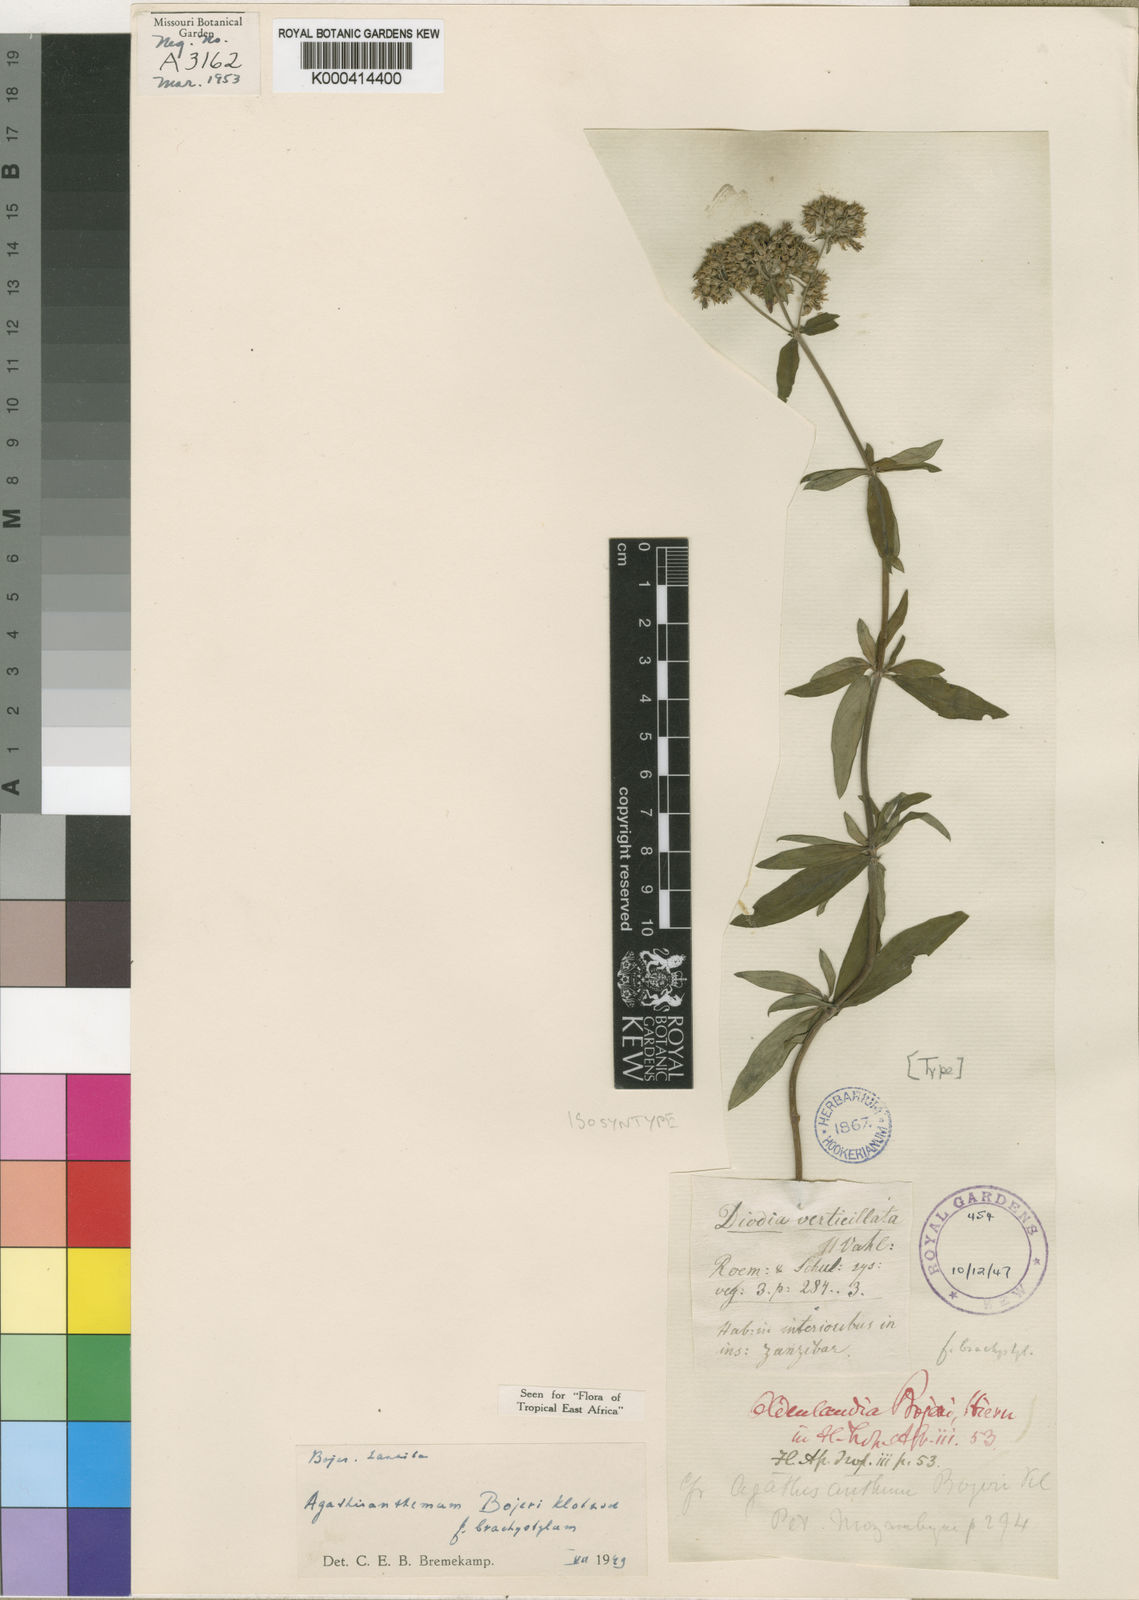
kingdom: Plantae
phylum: Tracheophyta
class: Magnoliopsida
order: Gentianales
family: Rubiaceae
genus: Agathisanthemum
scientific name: Agathisanthemum bojeri
